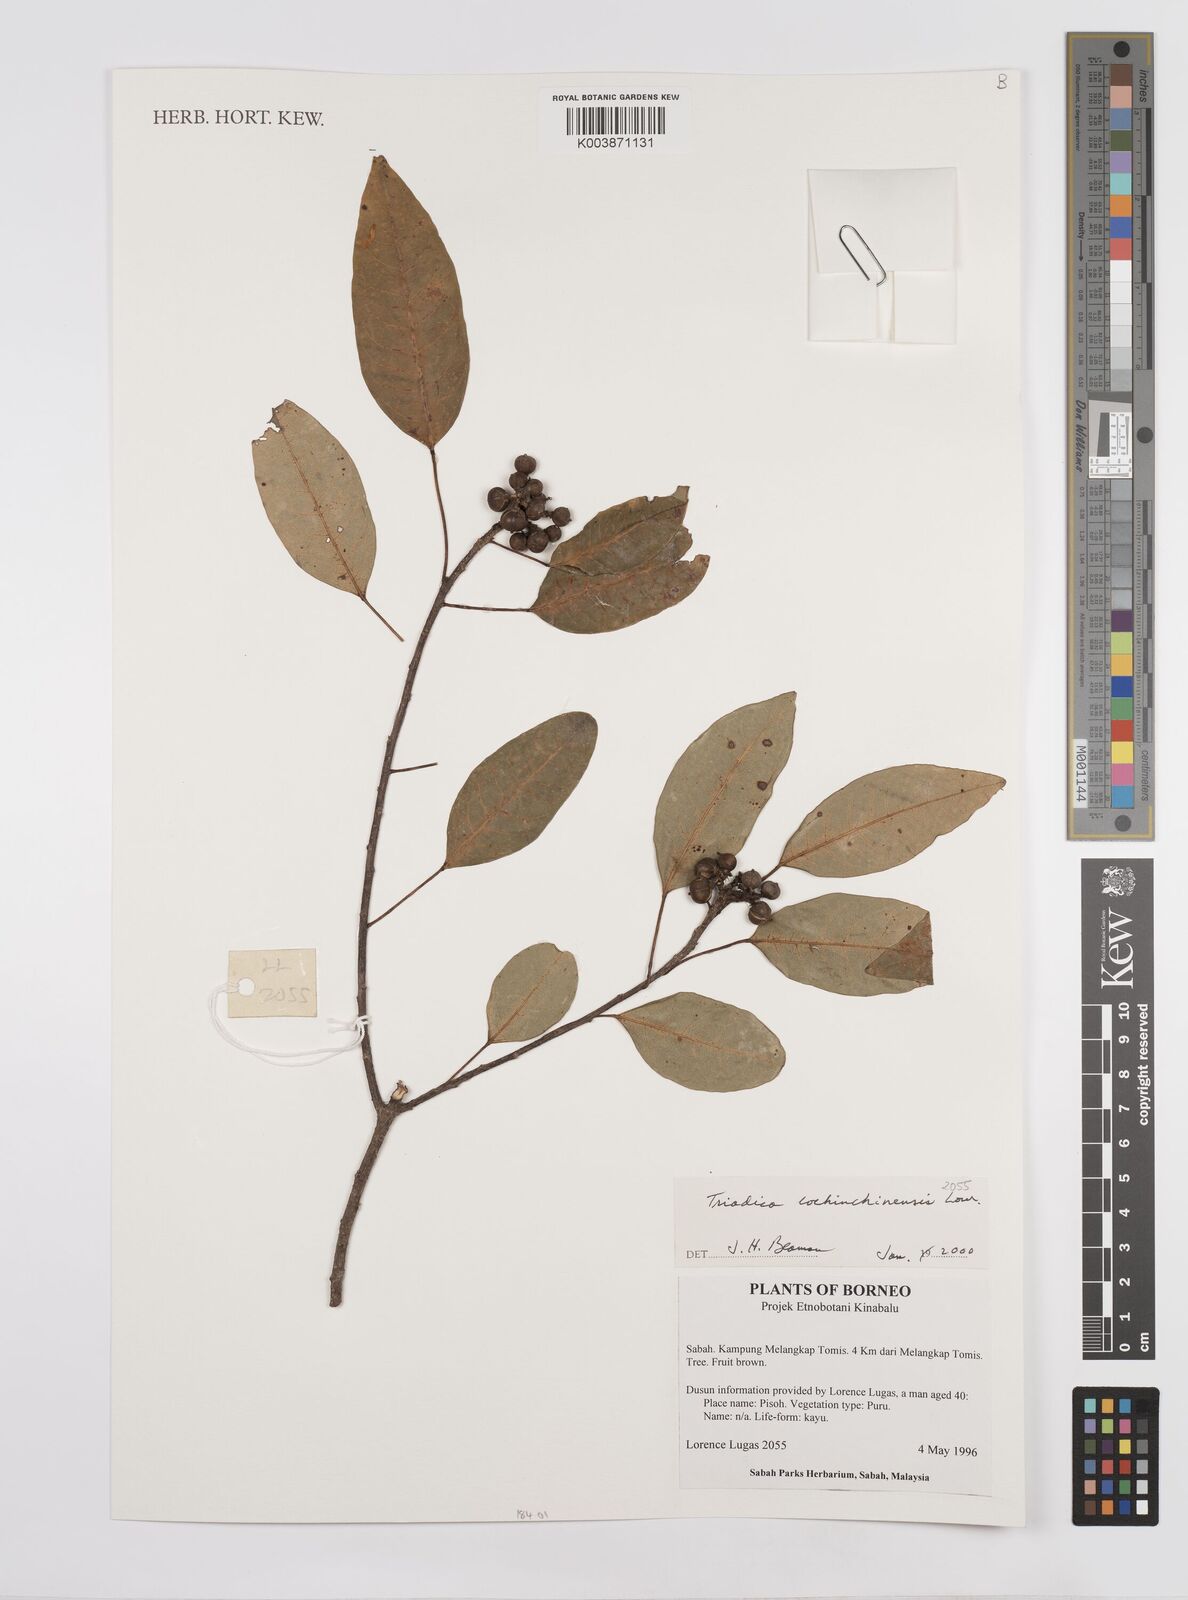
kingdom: Plantae
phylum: Tracheophyta
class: Magnoliopsida
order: Malpighiales
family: Euphorbiaceae
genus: Triadica
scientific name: Triadica cochinchinensis
